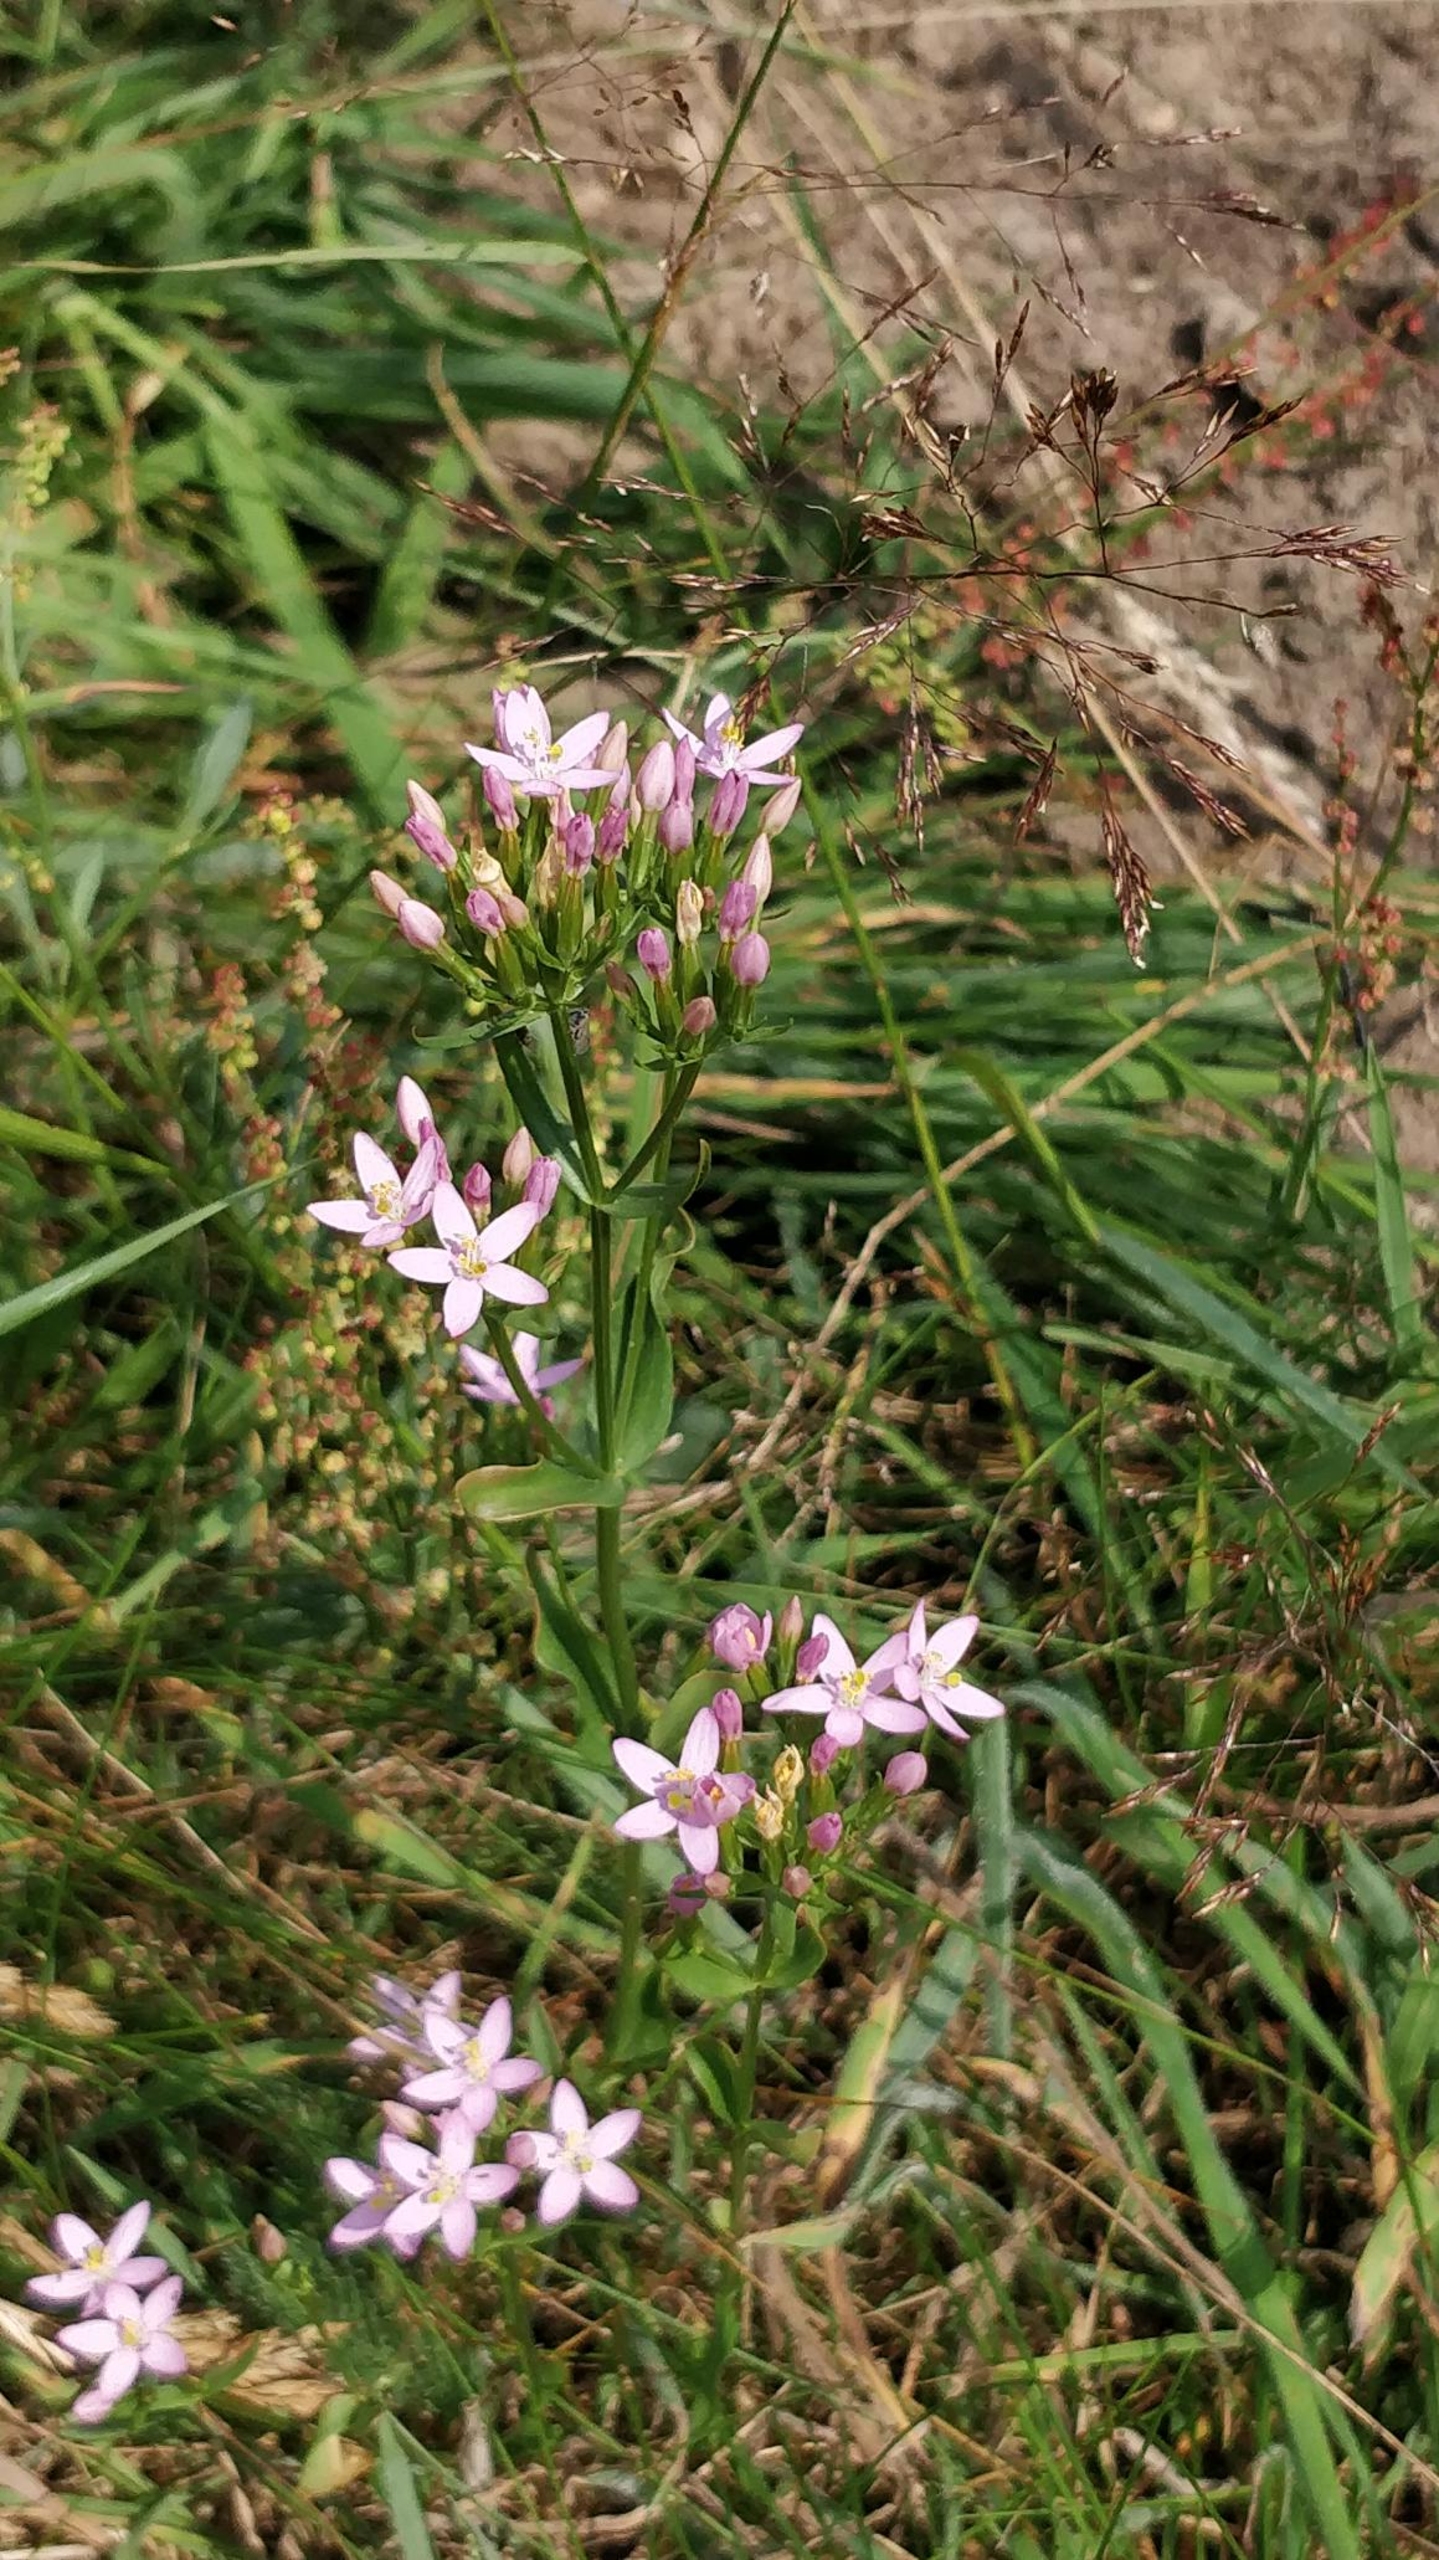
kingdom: Plantae
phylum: Tracheophyta
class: Magnoliopsida
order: Gentianales
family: Gentianaceae
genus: Centaurium
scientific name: Centaurium erythraea
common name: Mark-tusindgylden
